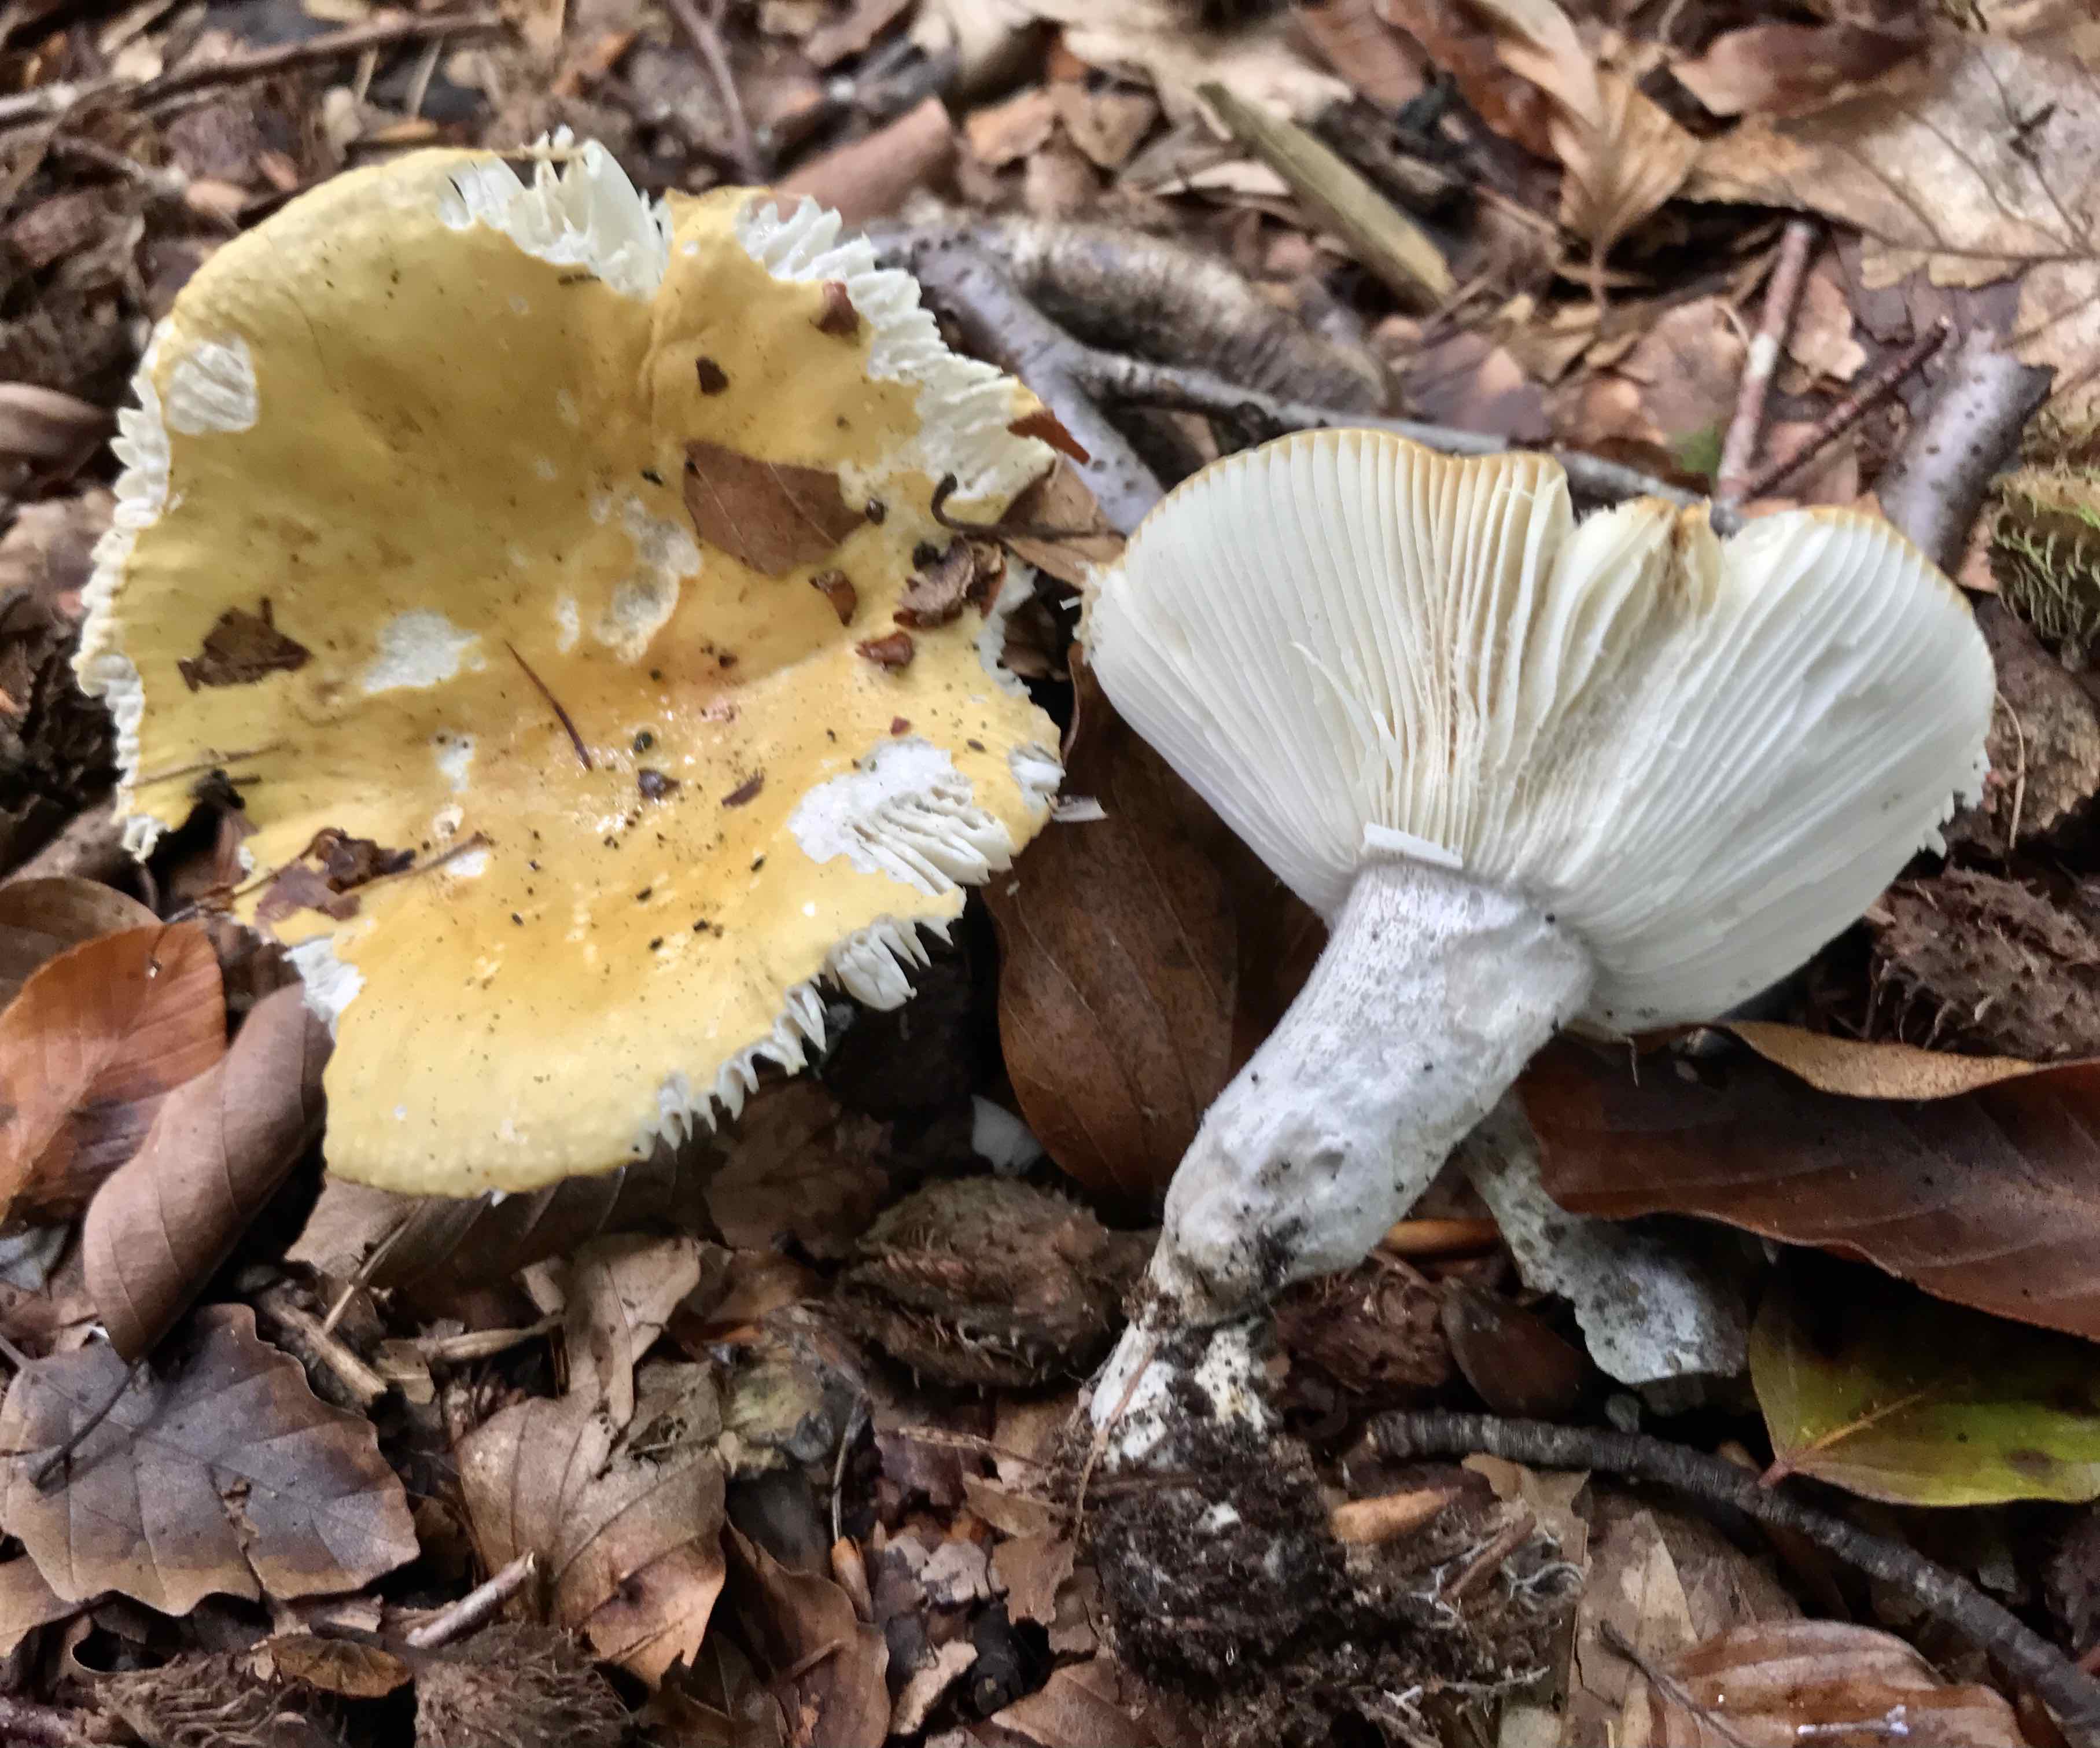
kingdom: Fungi
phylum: Basidiomycota
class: Agaricomycetes
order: Russulales
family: Russulaceae
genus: Russula
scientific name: Russula ochroleuca
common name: okkergul skørhat
